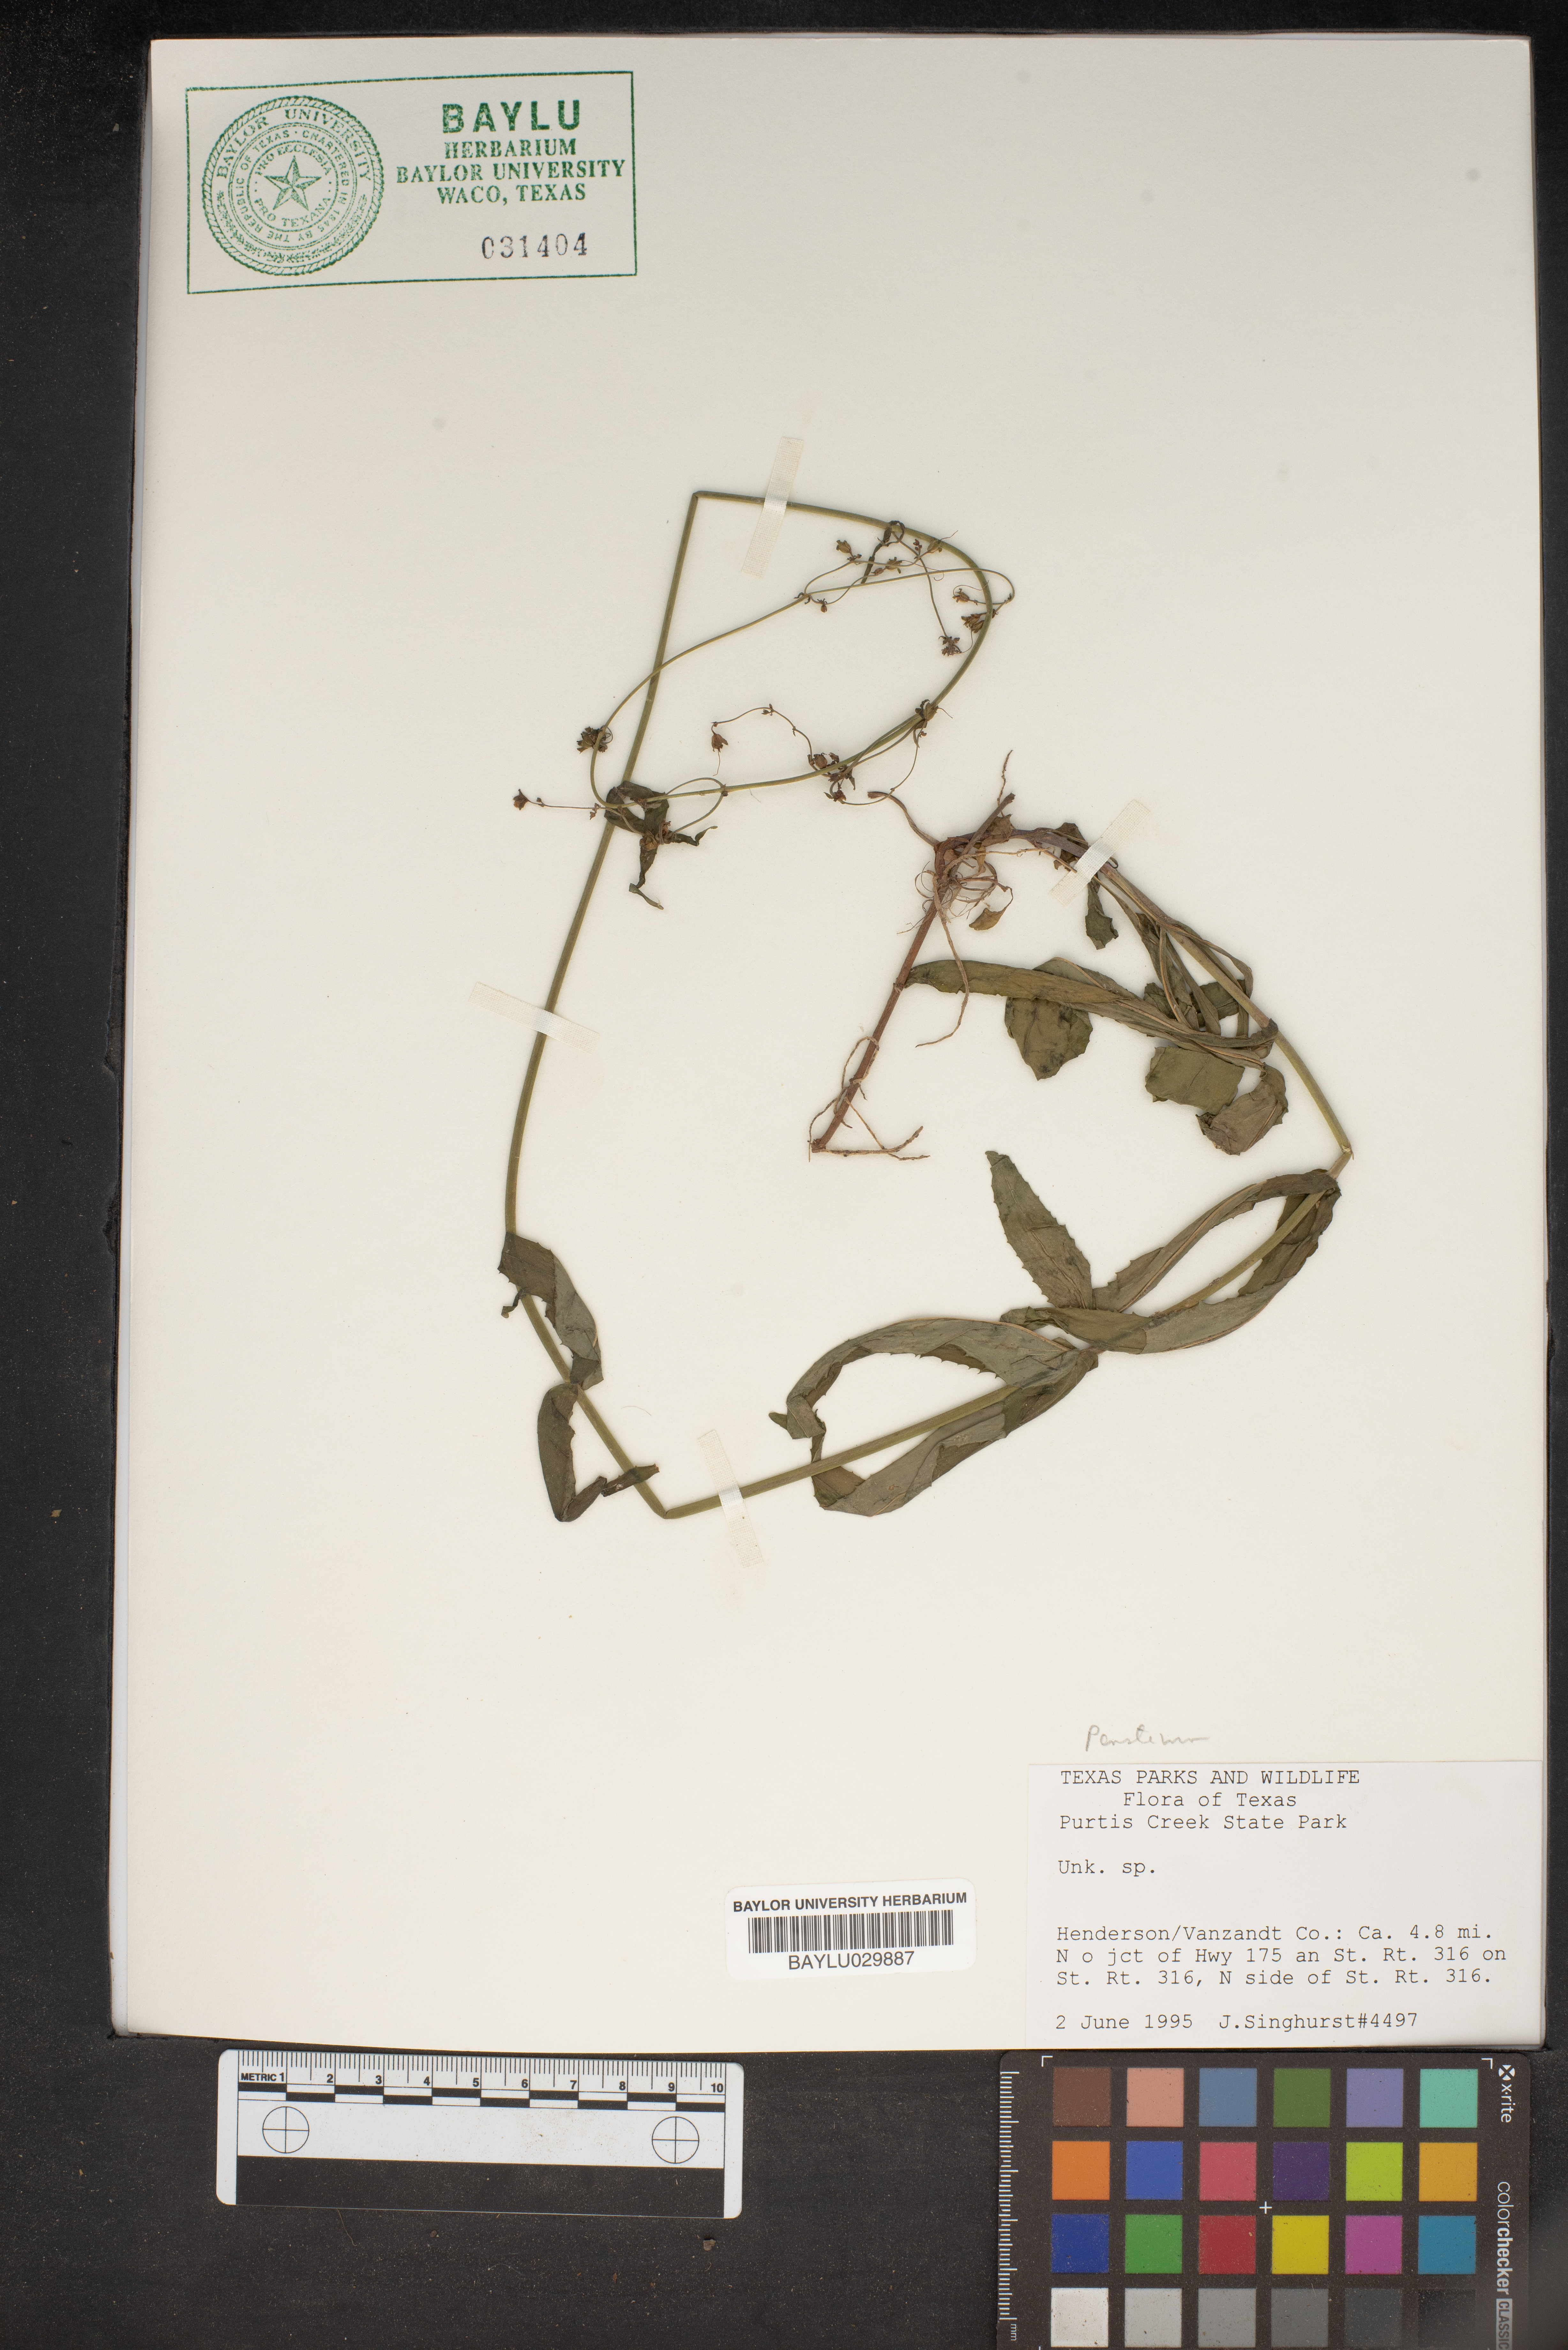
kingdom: Plantae
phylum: Tracheophyta
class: Magnoliopsida
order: Lamiales
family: Plantaginaceae
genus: Penstemon
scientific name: Penstemon
